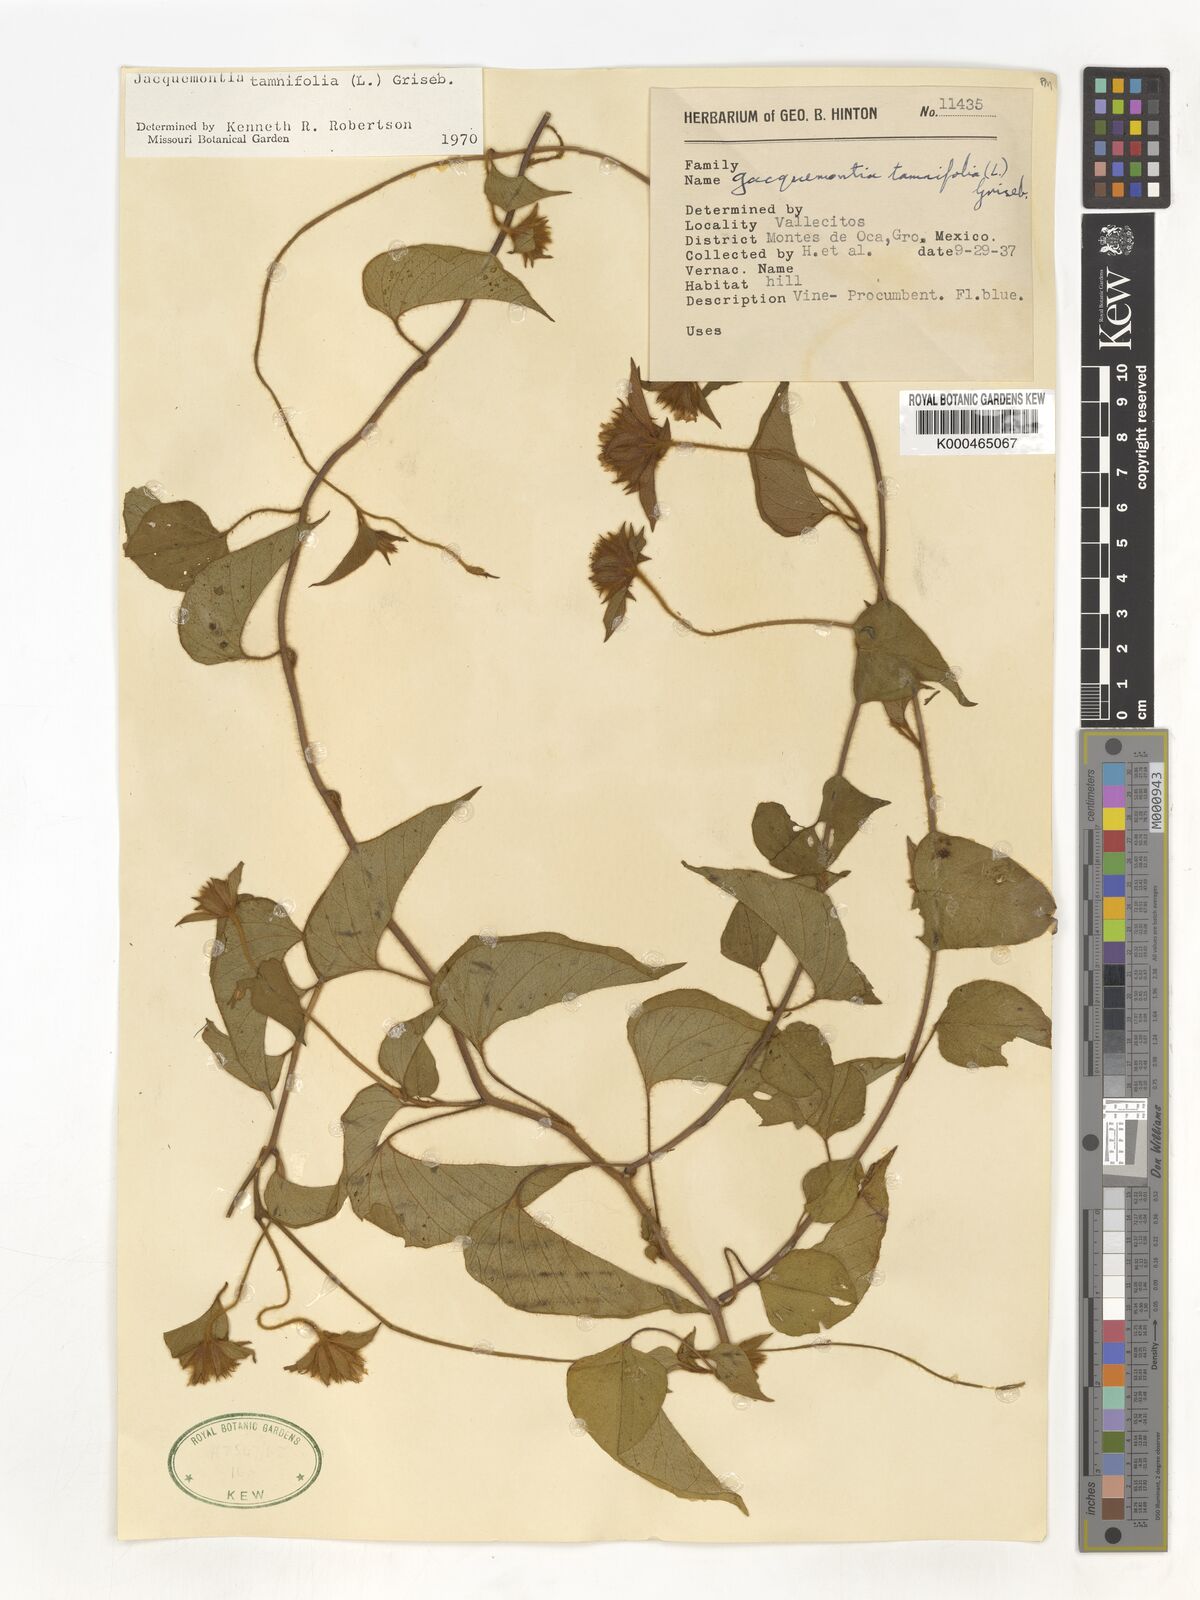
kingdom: Plantae
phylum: Tracheophyta
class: Magnoliopsida
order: Solanales
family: Convolvulaceae
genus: Jacquemontia
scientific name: Jacquemontia tamnifolia
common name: Hairy clustervine
